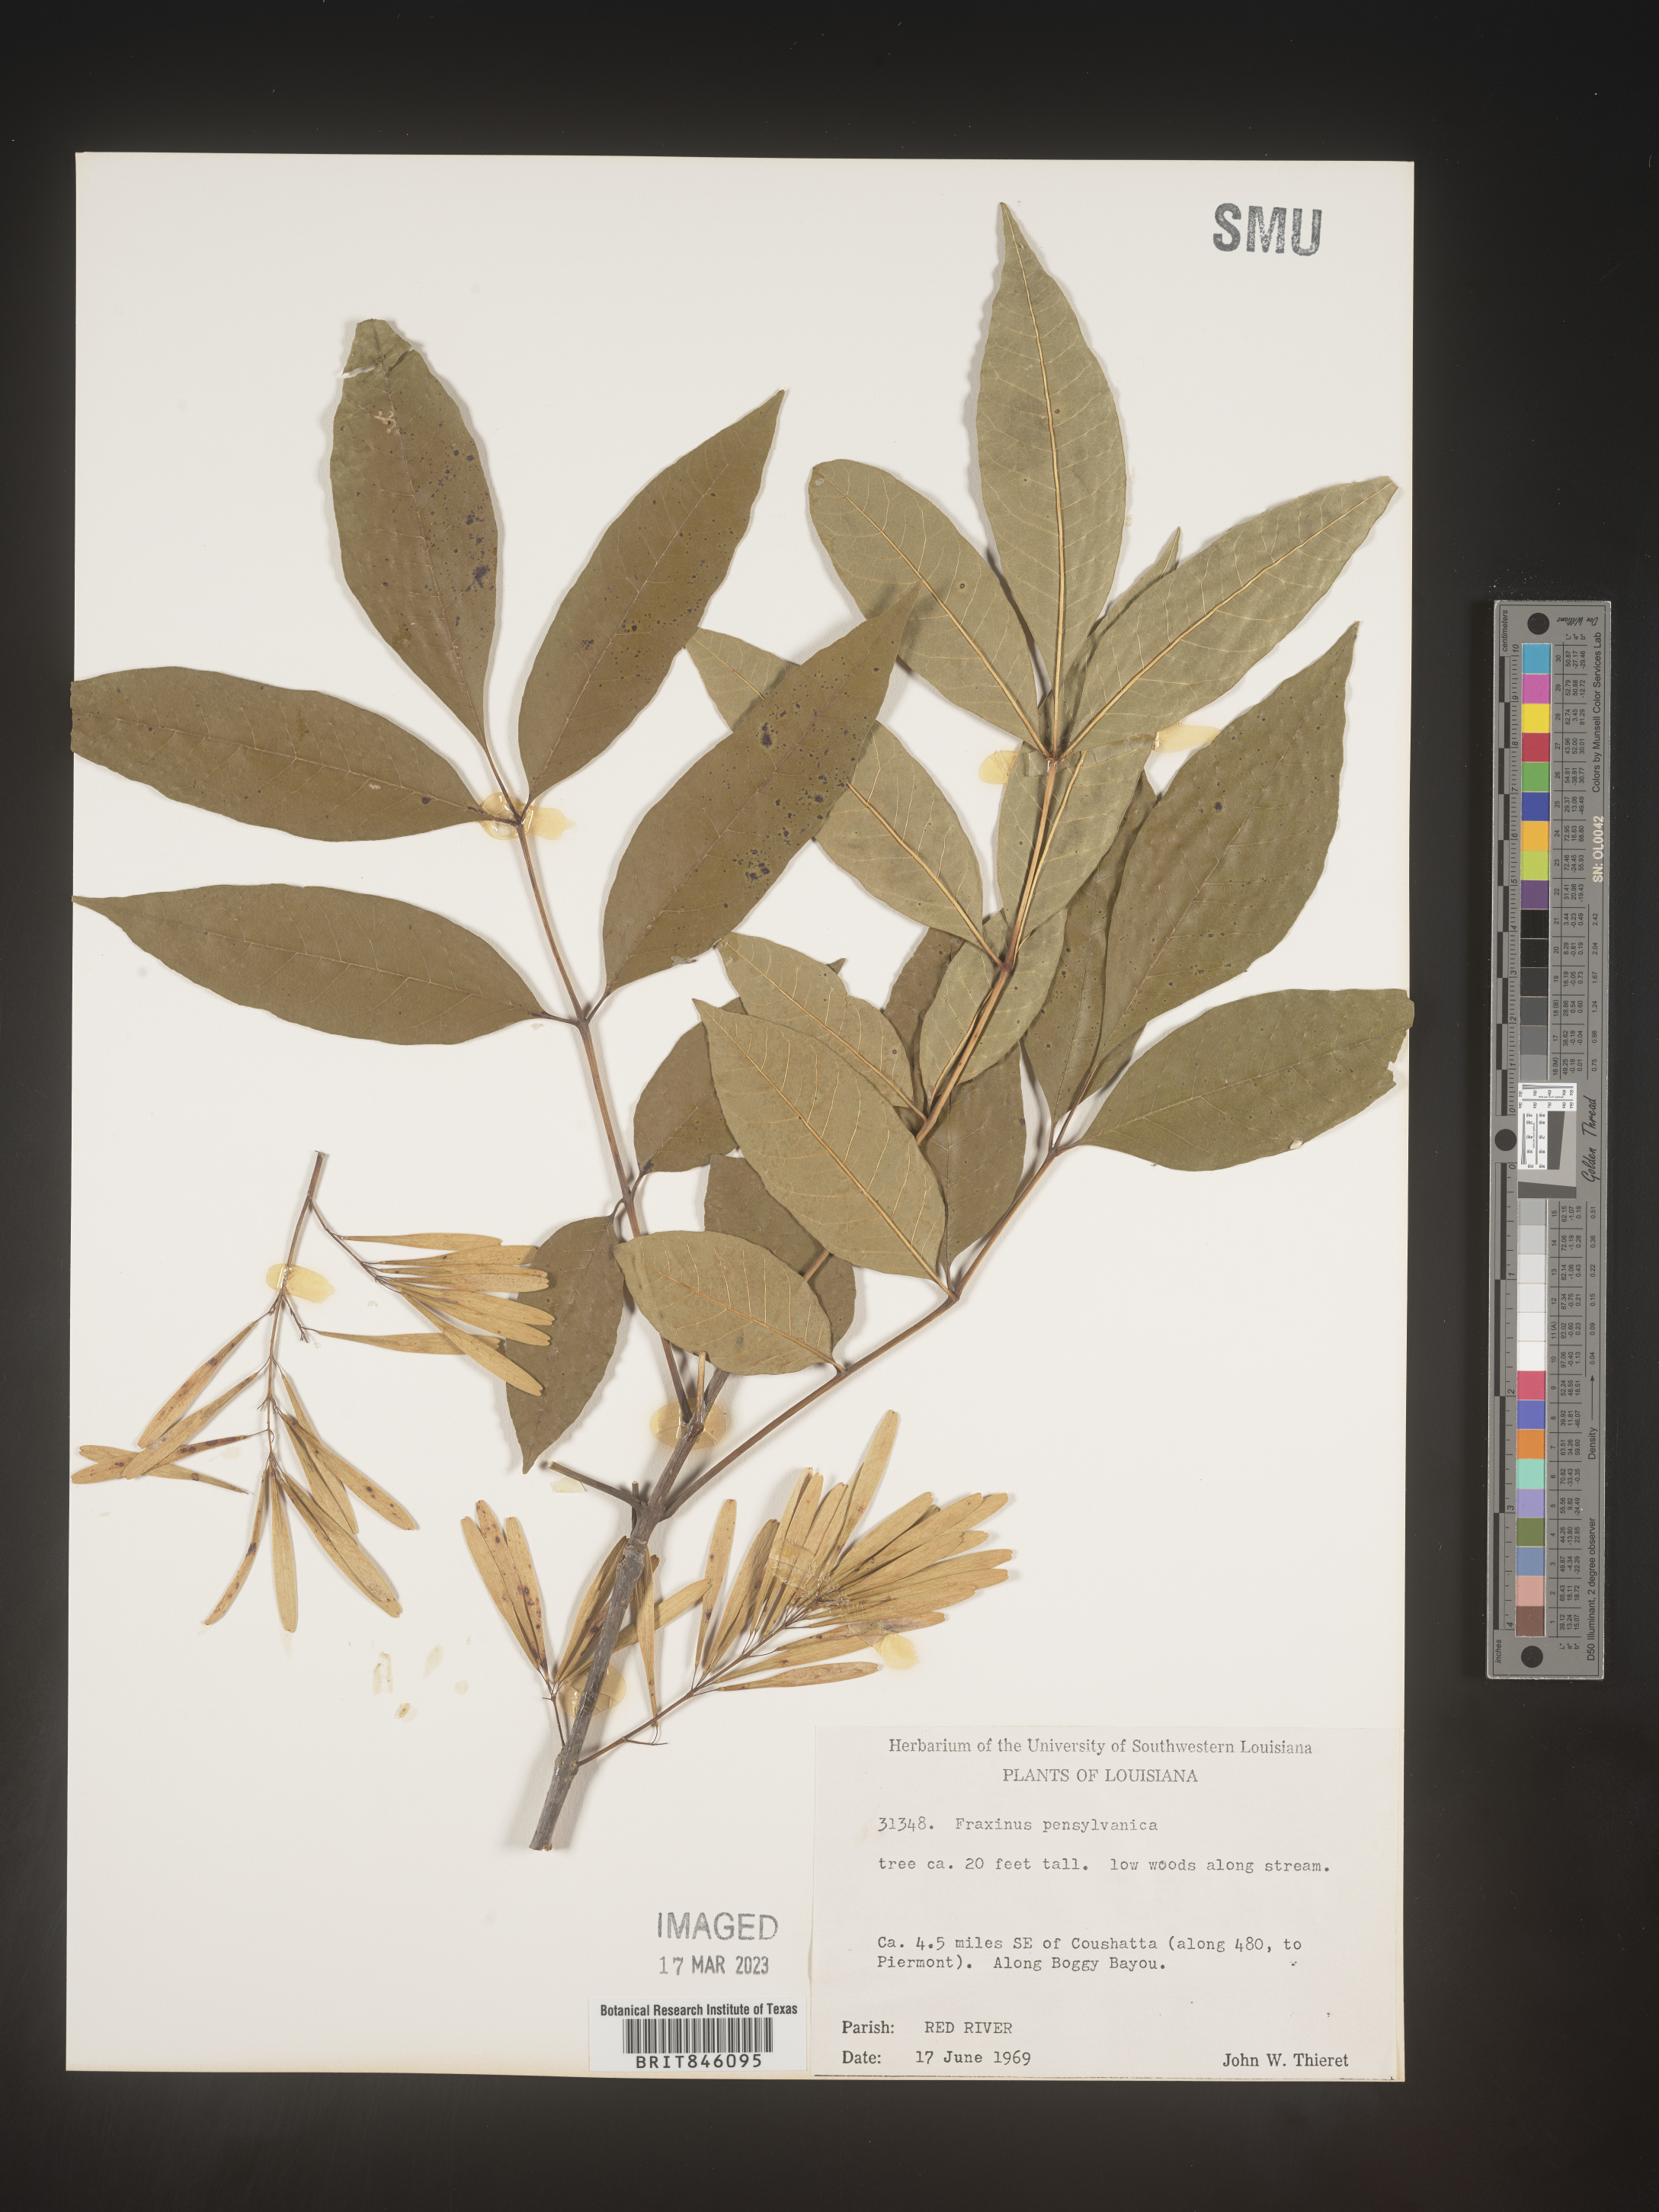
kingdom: Plantae
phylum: Tracheophyta
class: Magnoliopsida
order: Lamiales
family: Oleaceae
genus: Fraxinus
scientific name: Fraxinus pennsylvanica
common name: Green ash
